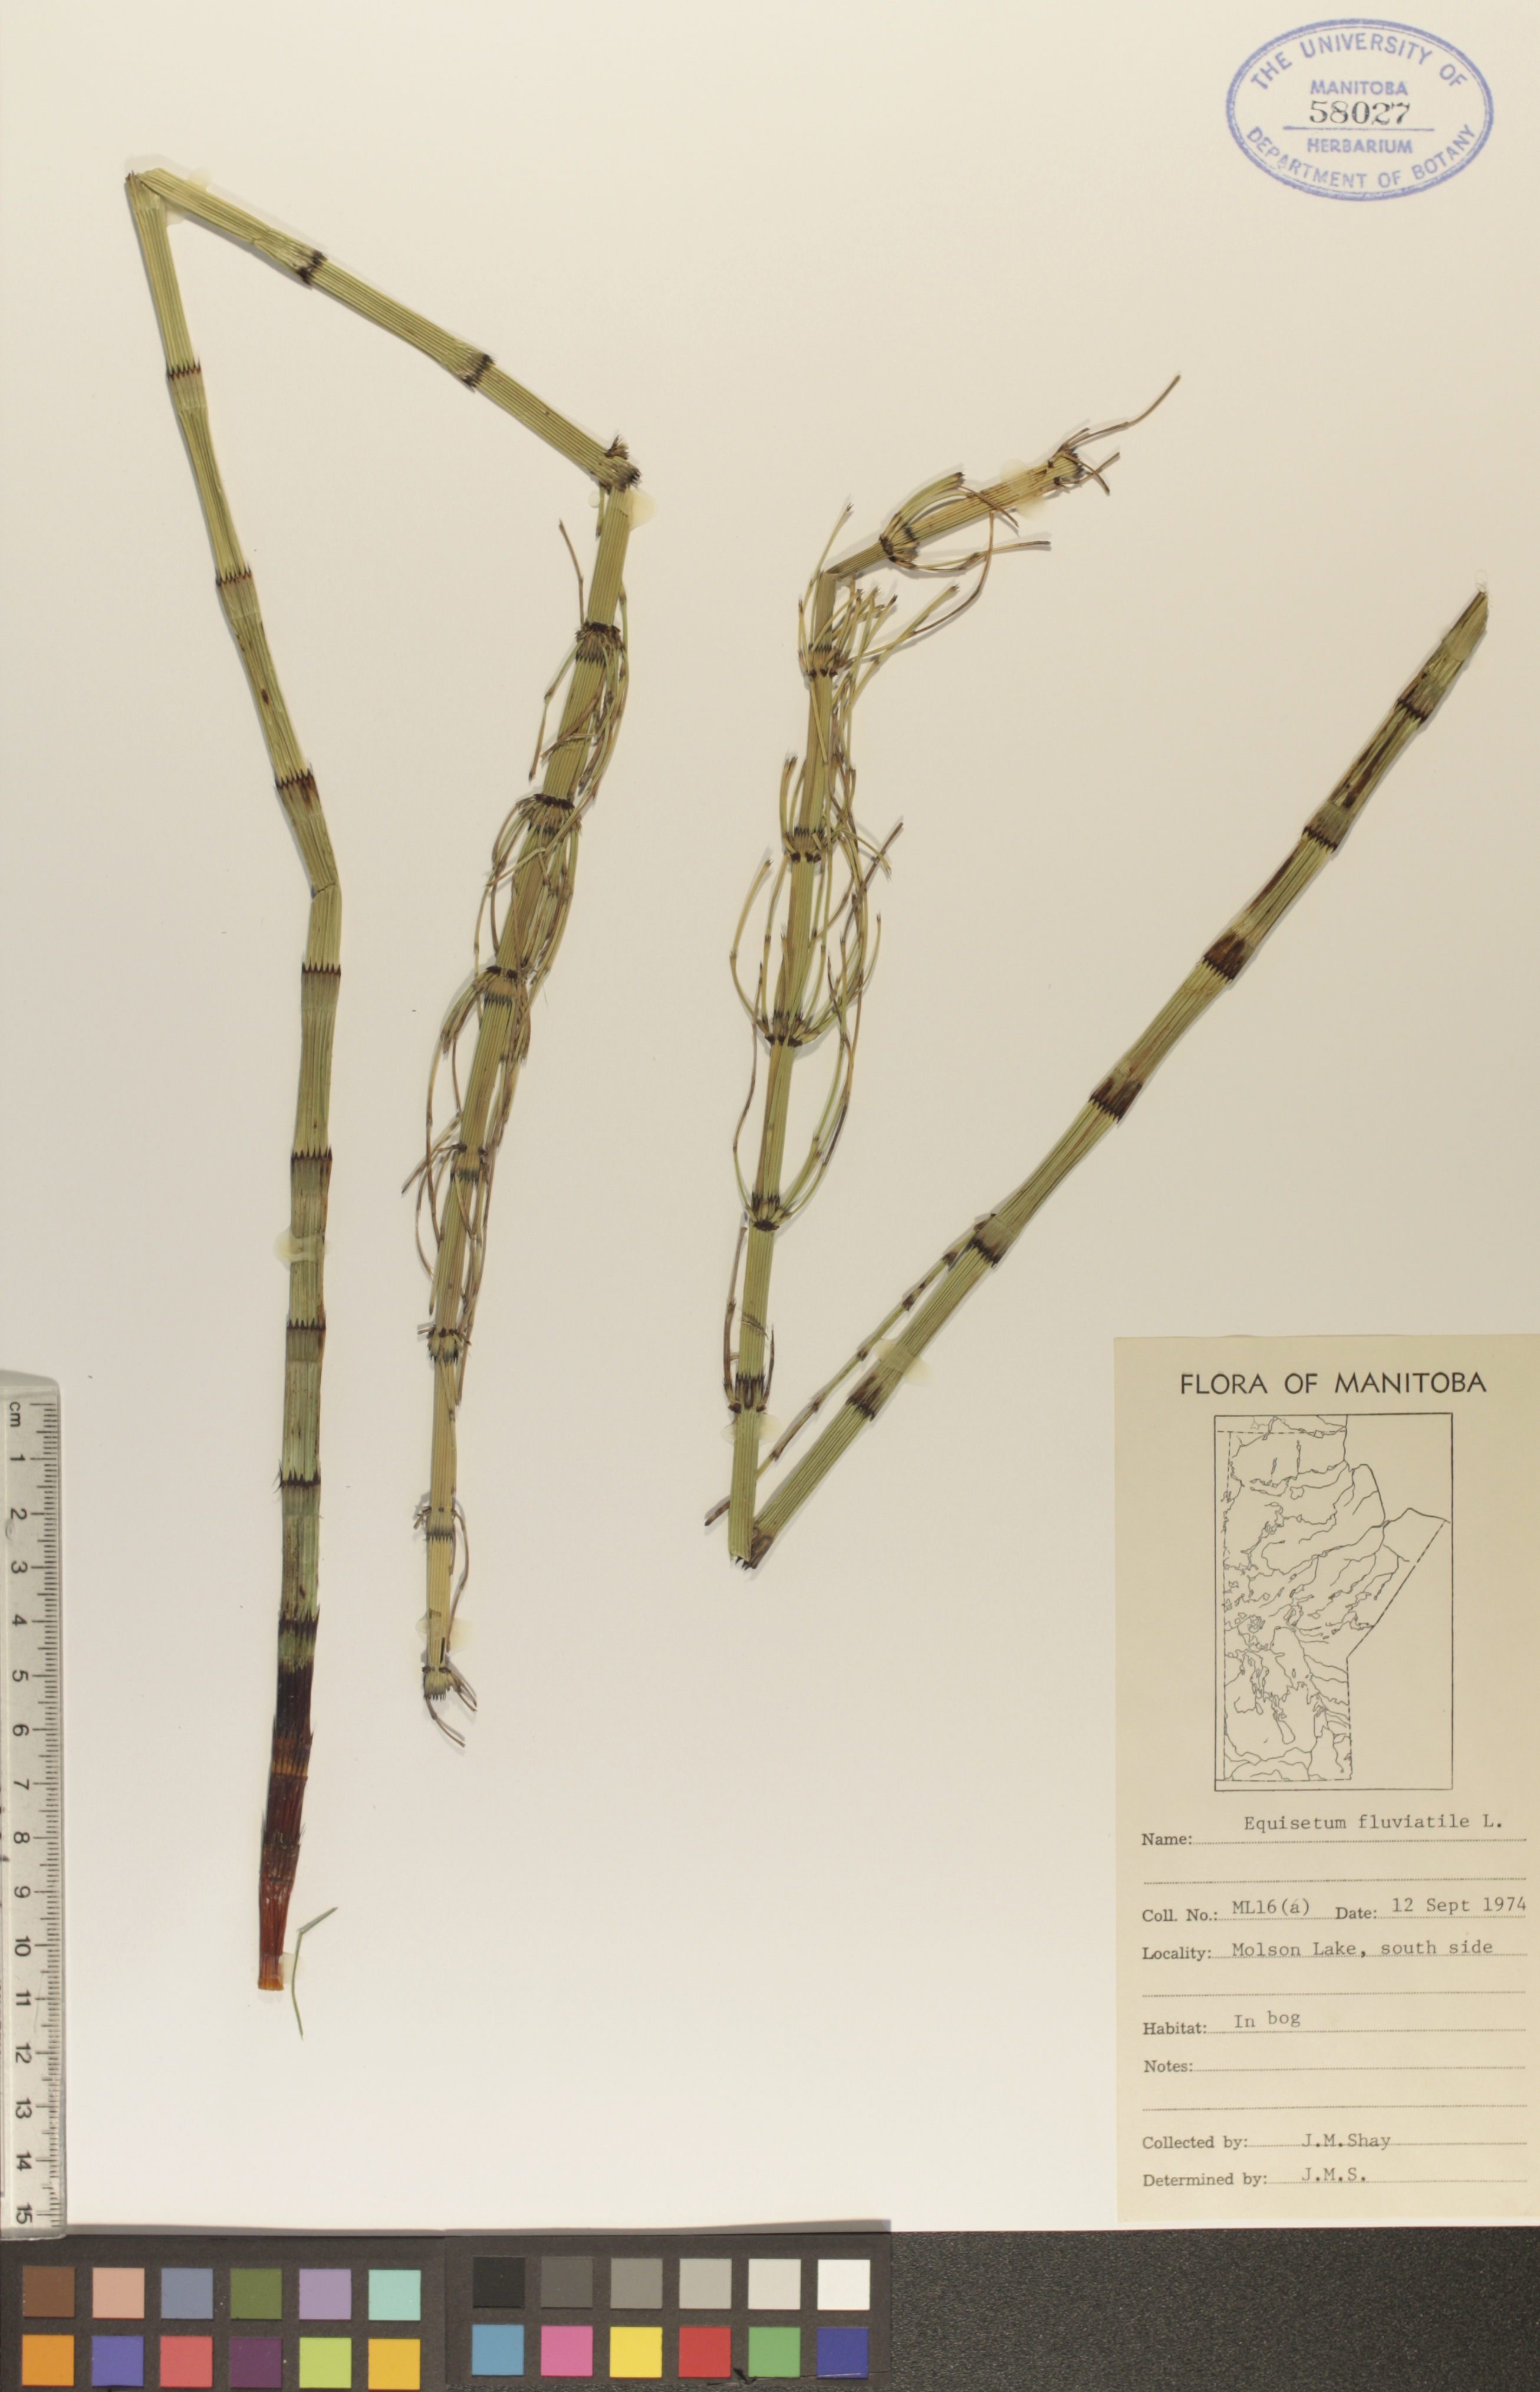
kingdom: Plantae
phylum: Tracheophyta
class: Polypodiopsida
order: Equisetales
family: Equisetaceae
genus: Equisetum
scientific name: Equisetum fluviatile
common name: Water horsetail
